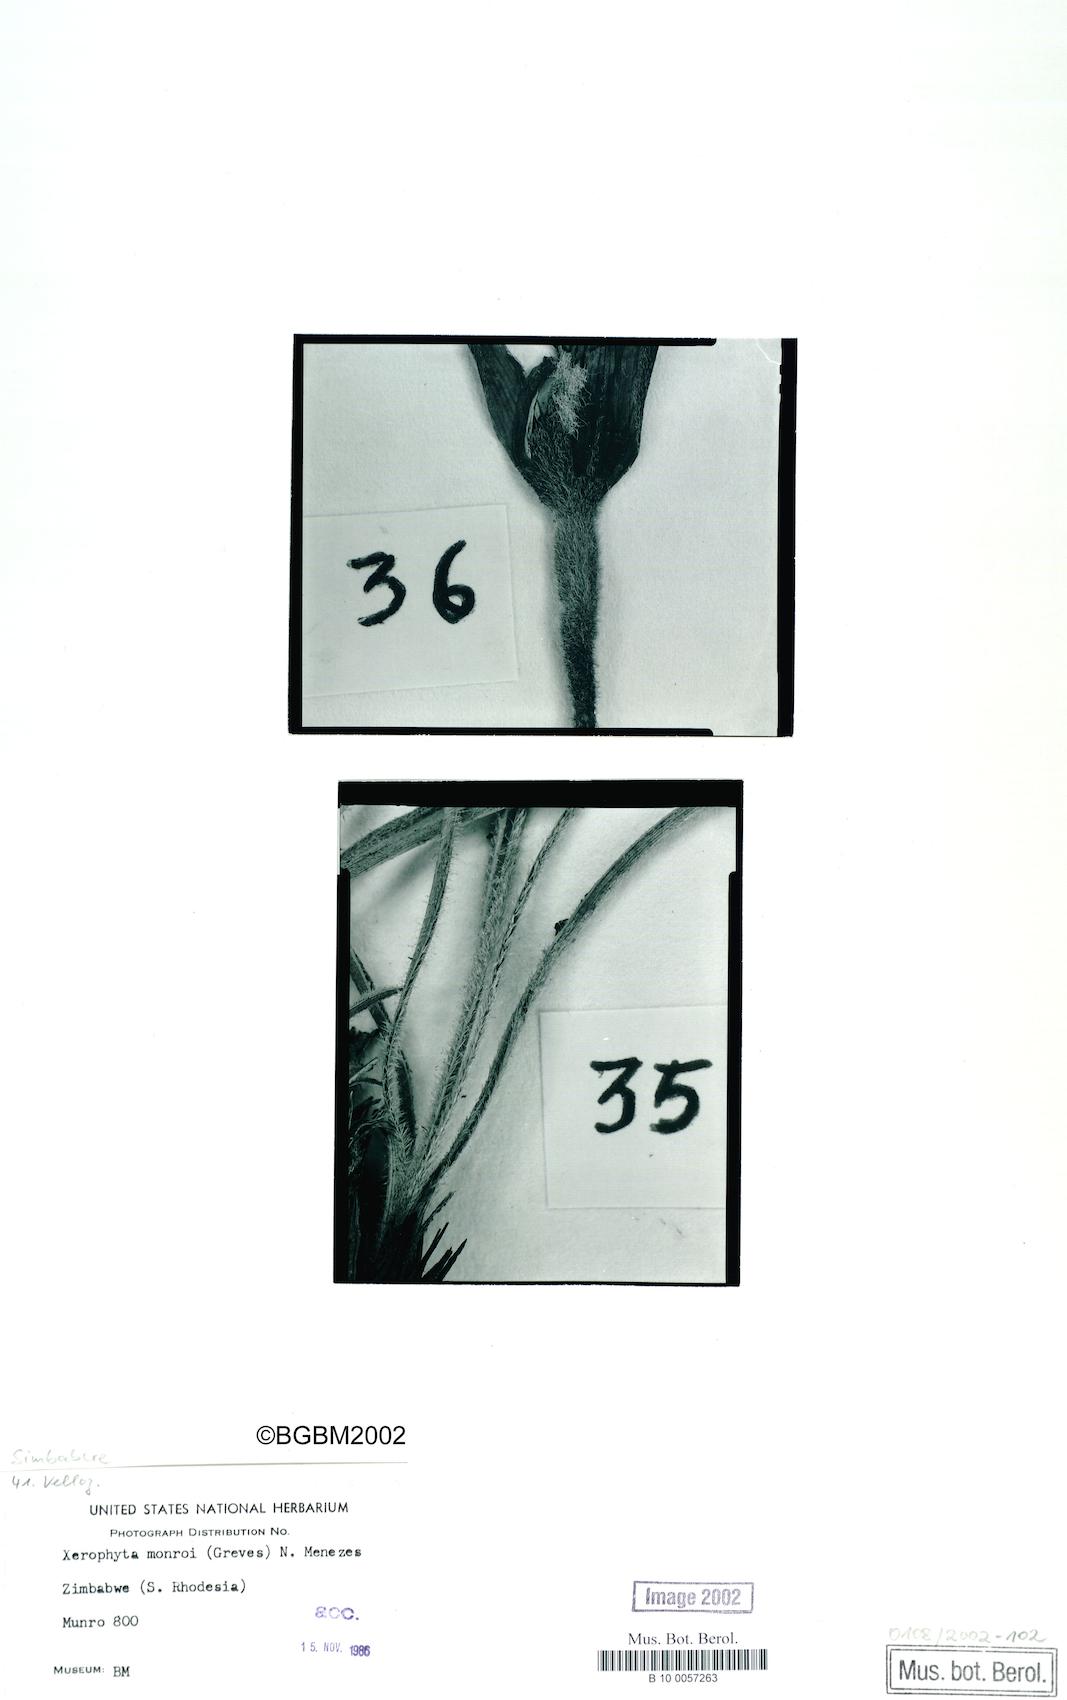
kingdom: Plantae
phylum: Tracheophyta
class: Liliopsida
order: Pandanales
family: Velloziaceae
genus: Xerophyta
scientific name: Xerophyta monroi
